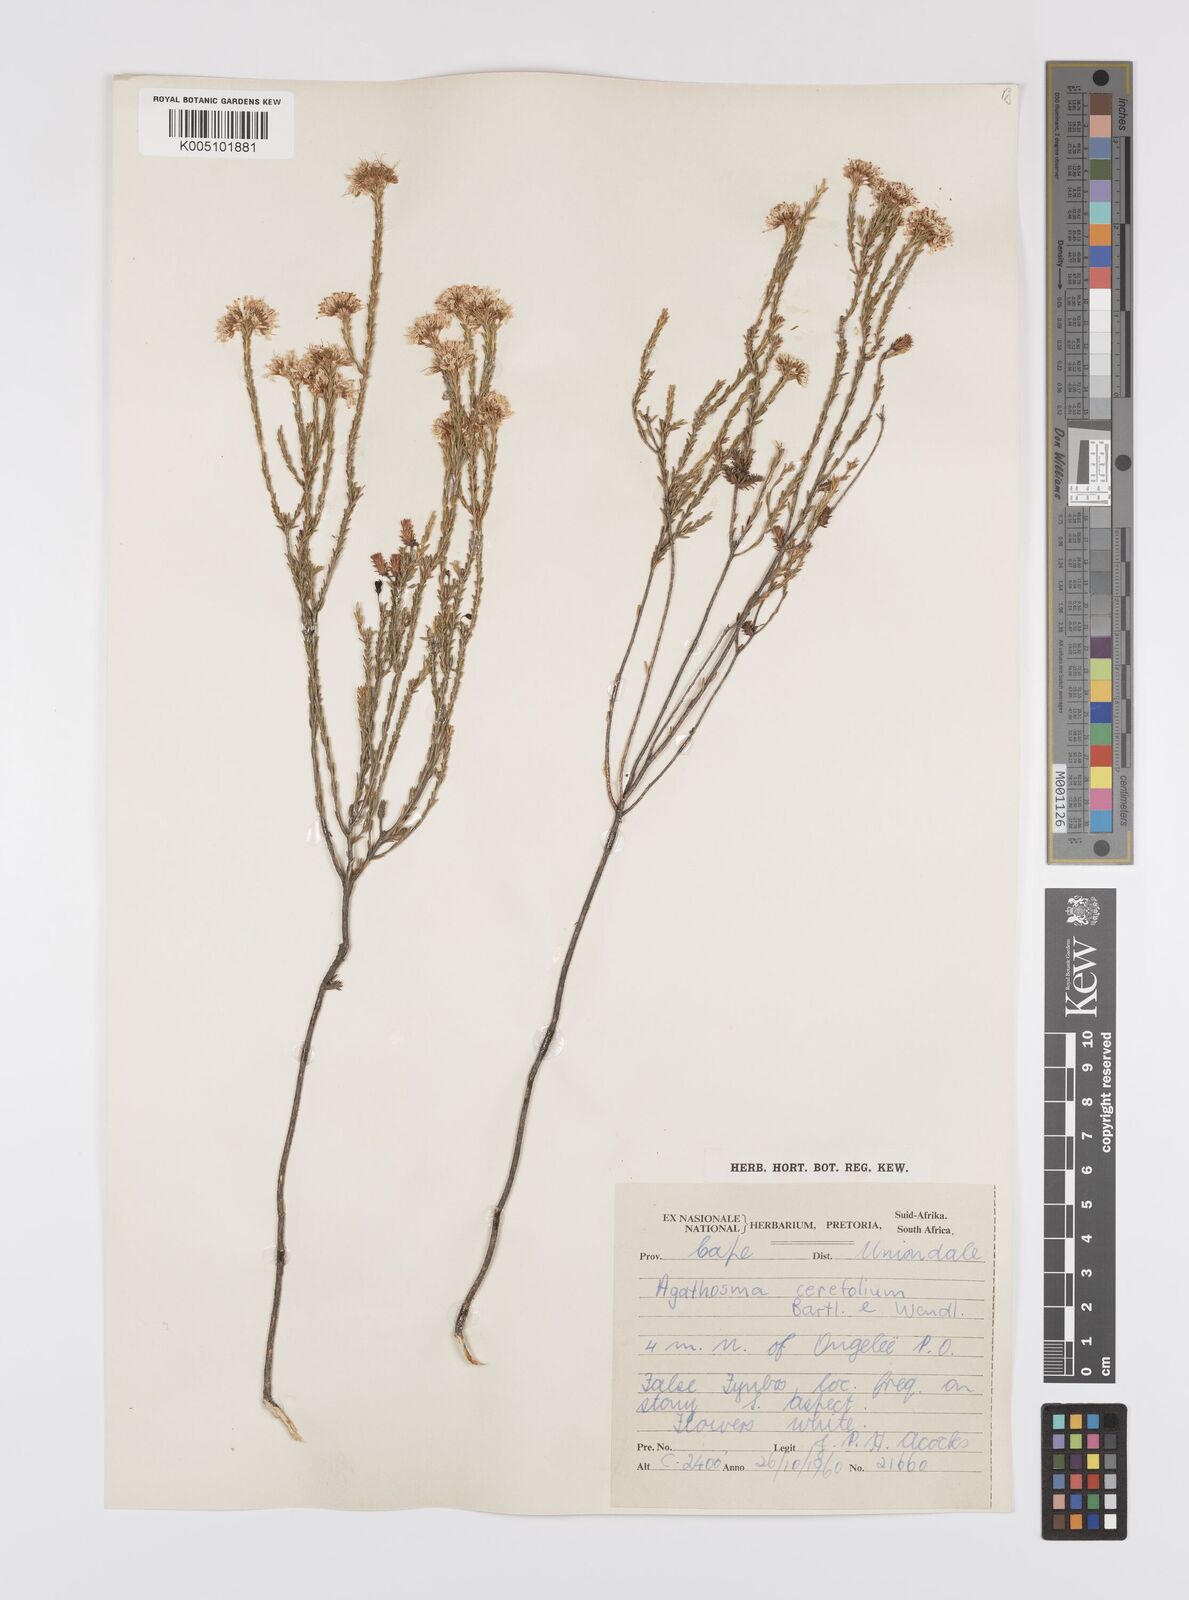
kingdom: Plantae
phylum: Tracheophyta
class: Magnoliopsida
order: Sapindales
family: Rutaceae
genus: Agathosma
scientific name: Agathosma cerefolia
